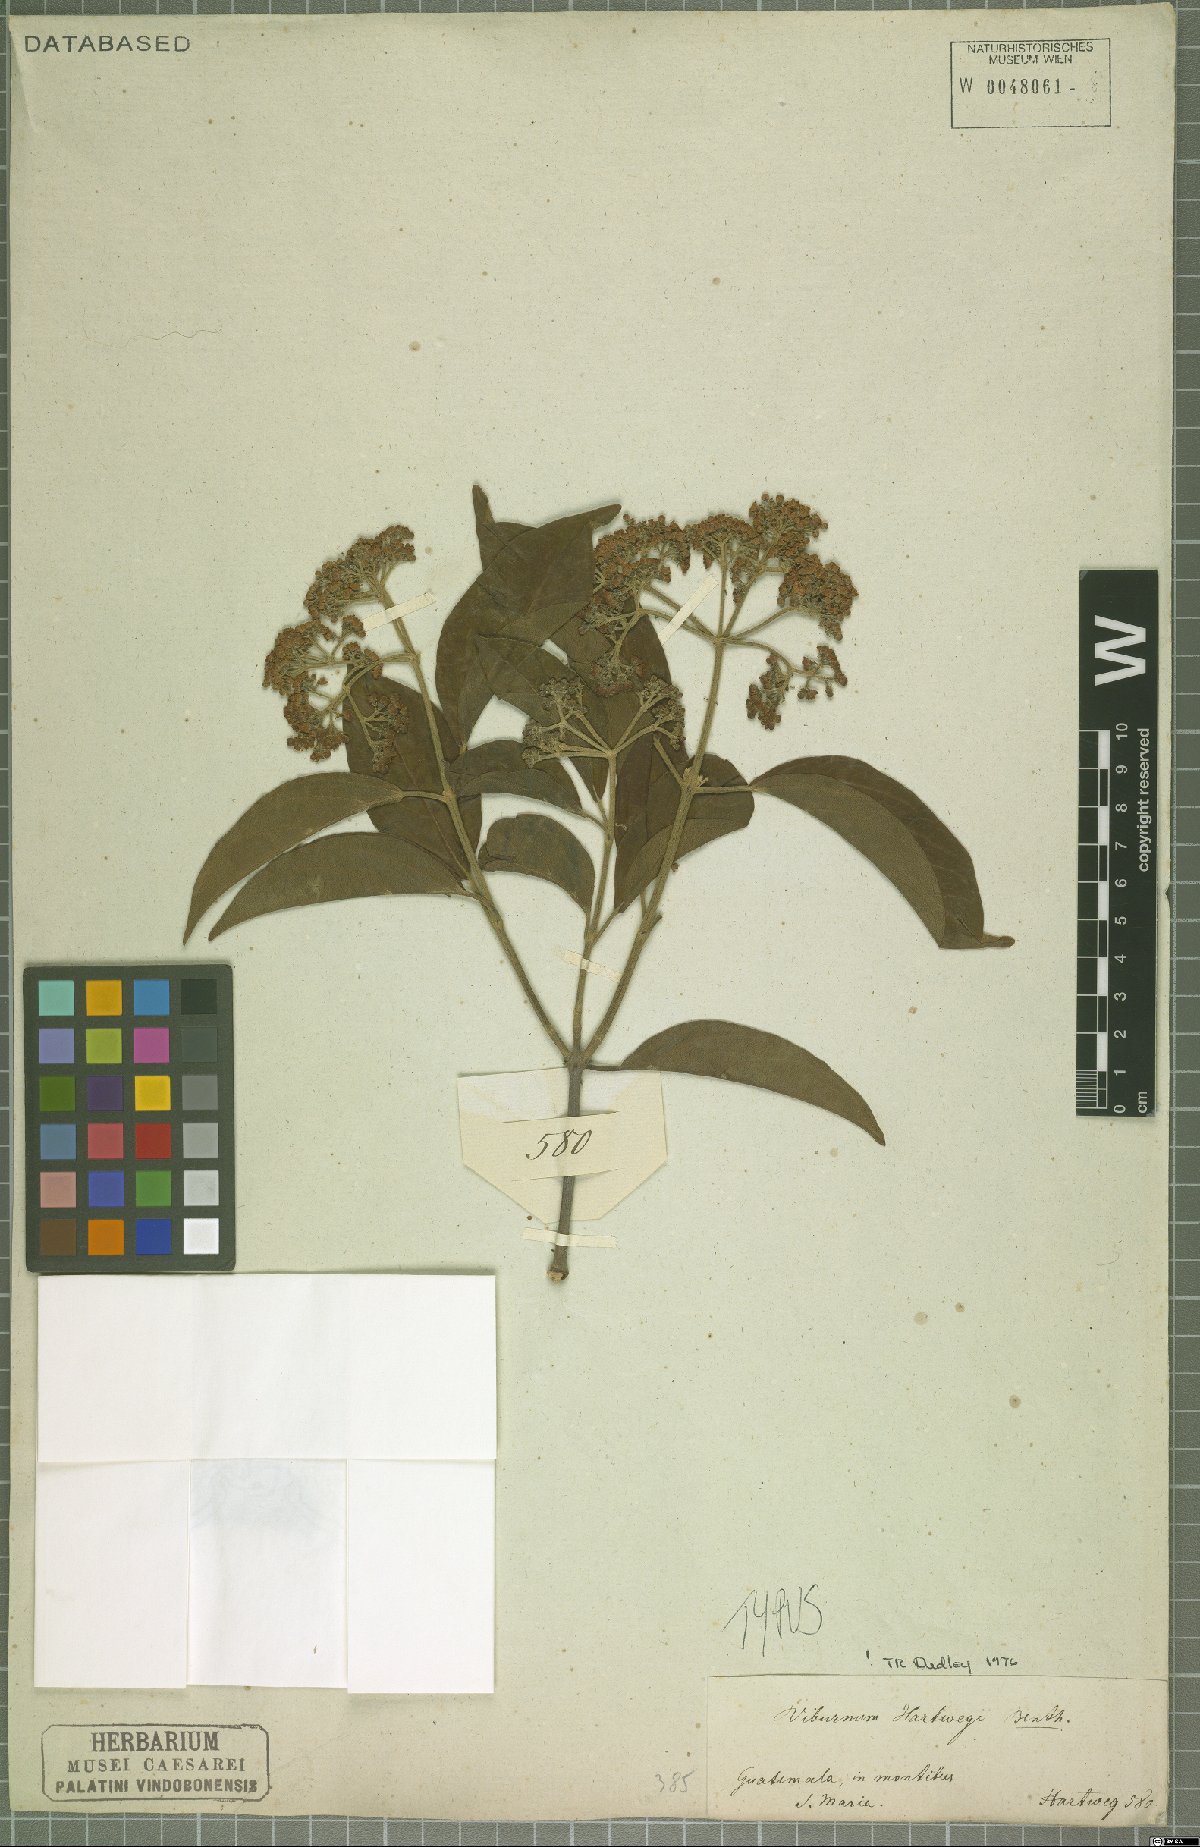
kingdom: Plantae
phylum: Tracheophyta
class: Magnoliopsida
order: Dipsacales
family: Viburnaceae
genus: Viburnum
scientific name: Viburnum hartwegii
